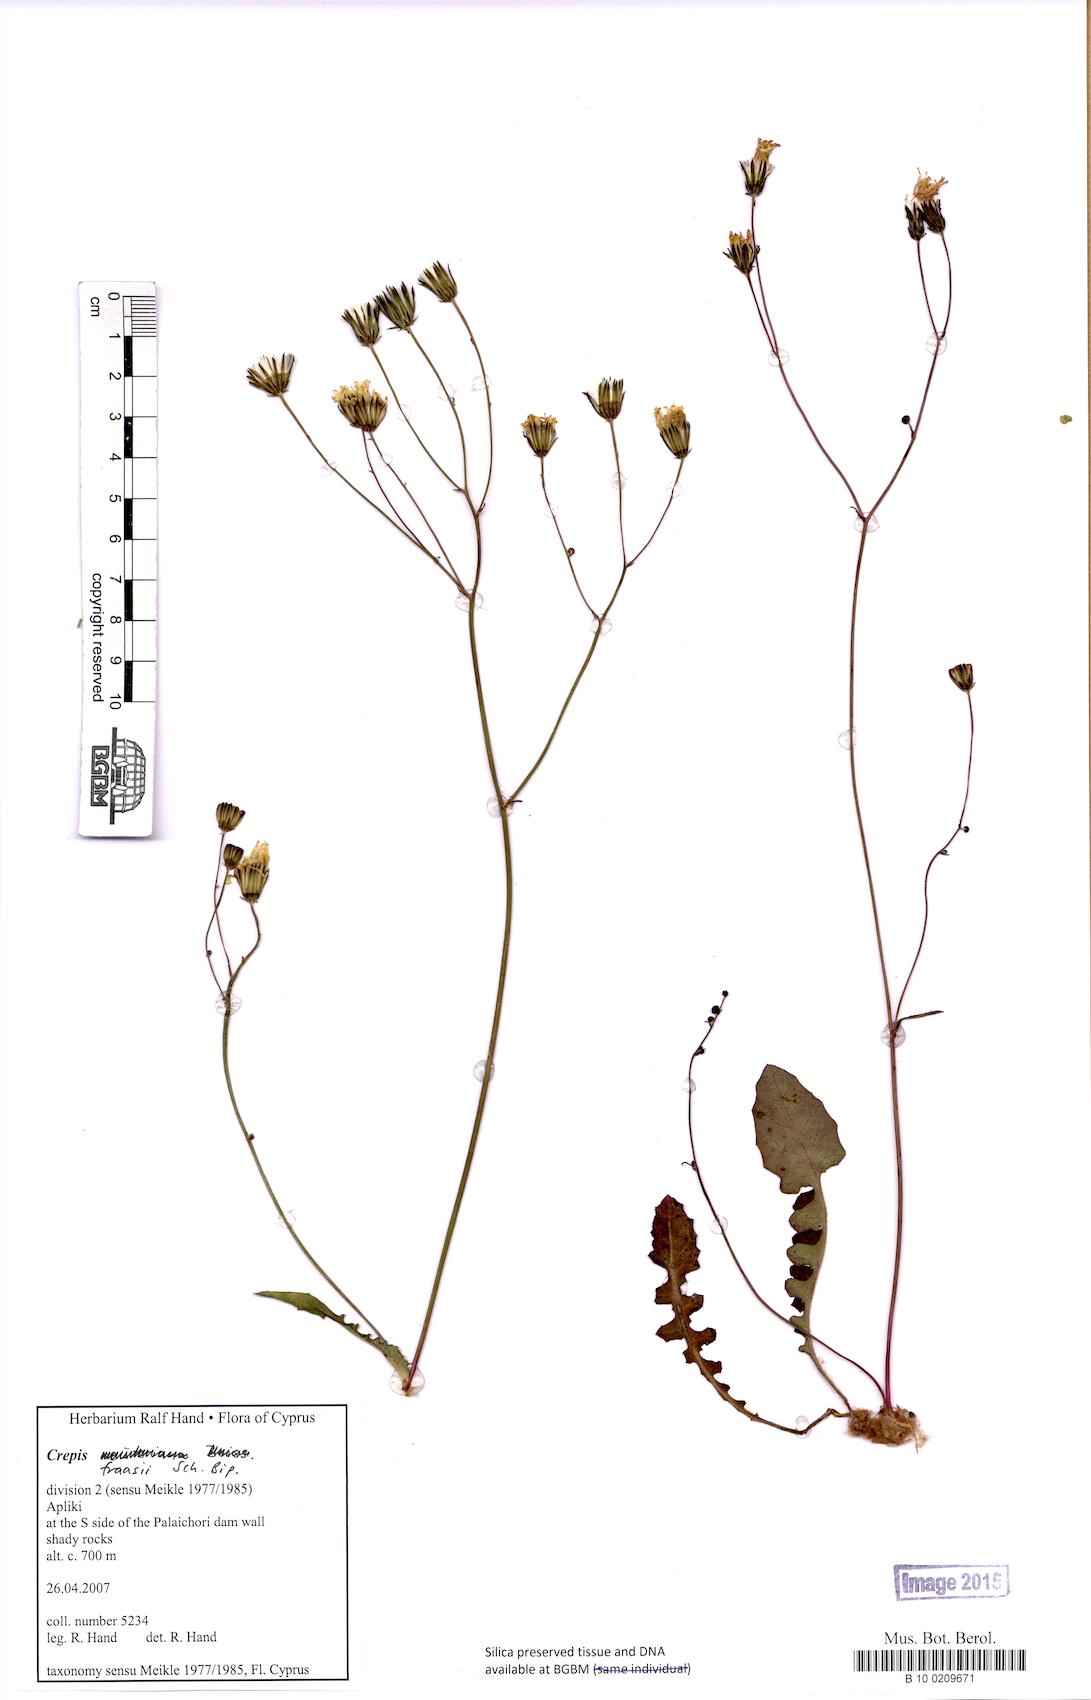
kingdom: Plantae
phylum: Tracheophyta
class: Magnoliopsida
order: Asterales
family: Asteraceae
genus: Crepis
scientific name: Crepis fraasii
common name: Hawk's-beard
